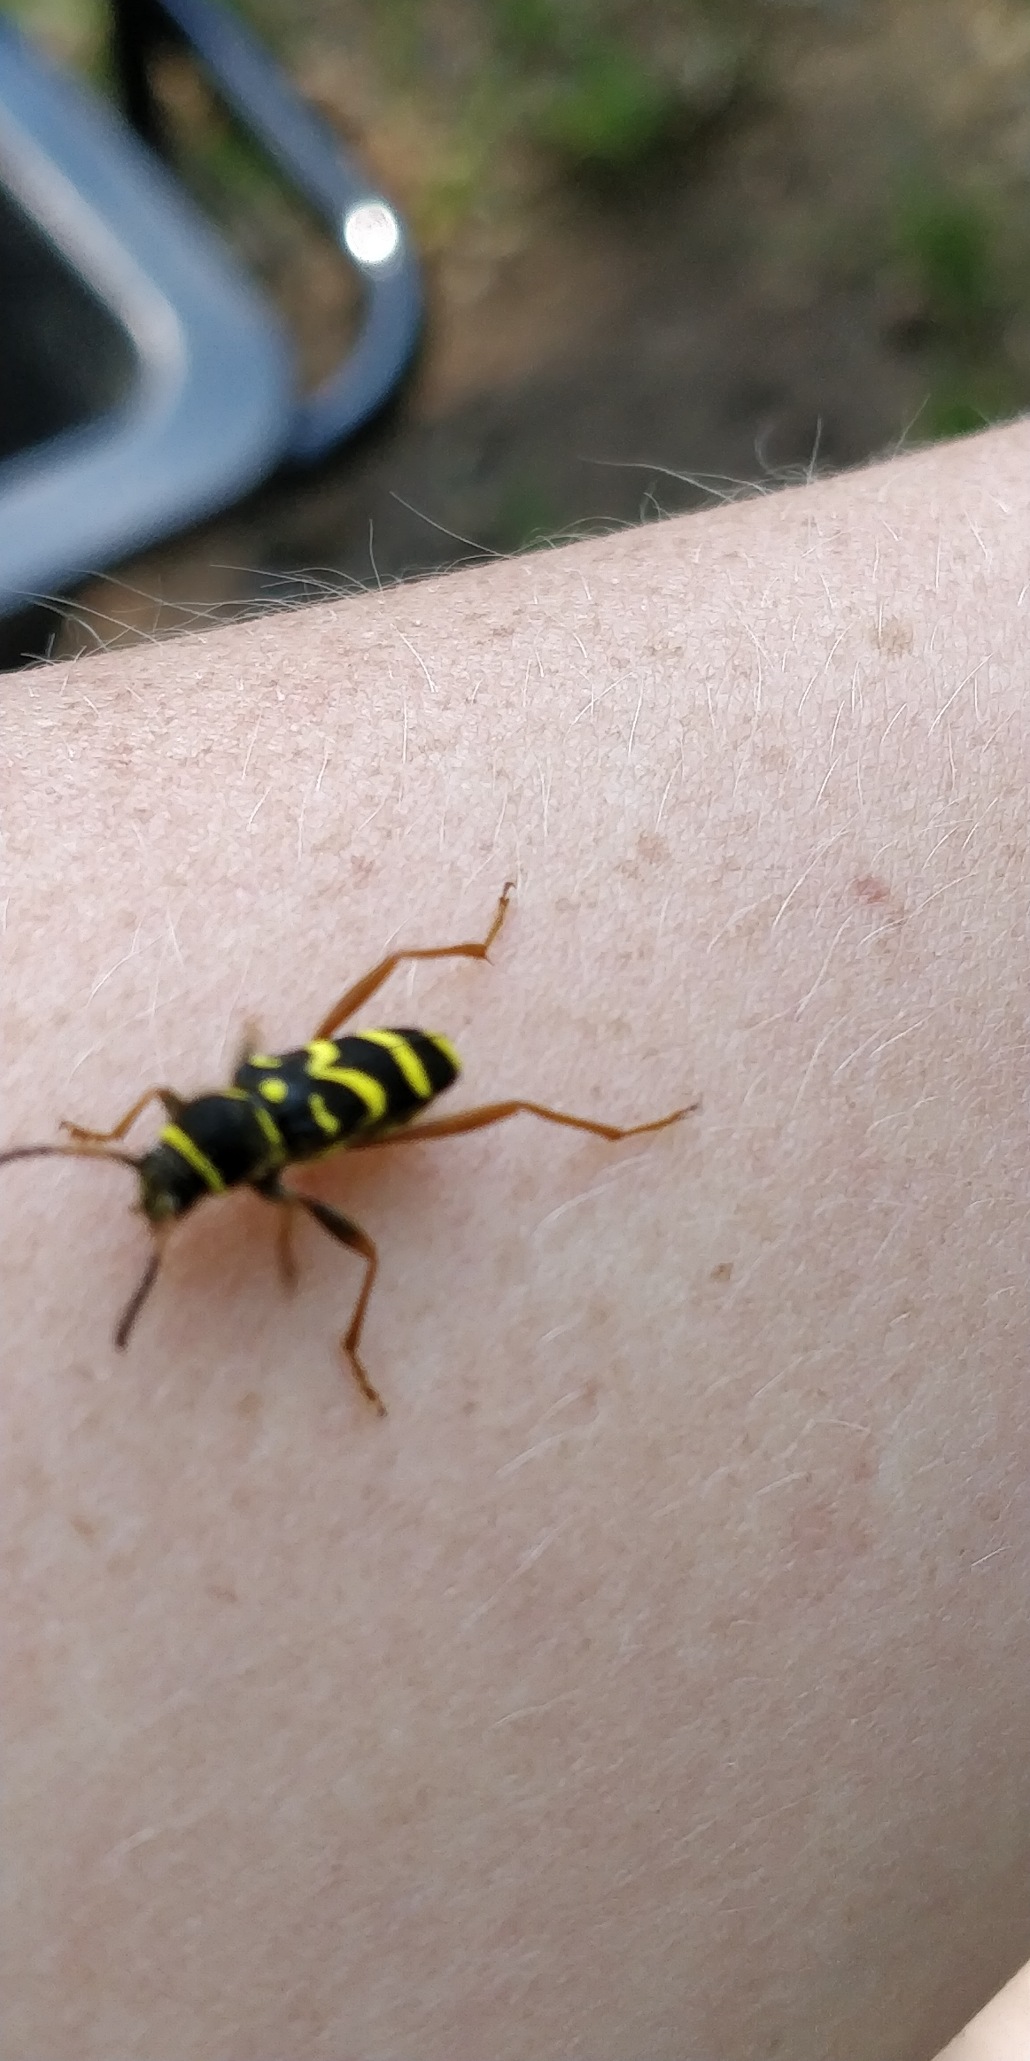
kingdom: Animalia
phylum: Arthropoda
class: Insecta
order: Coleoptera
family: Cerambycidae
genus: Clytus
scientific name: Clytus arietis
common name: Lille hvepsebuk
